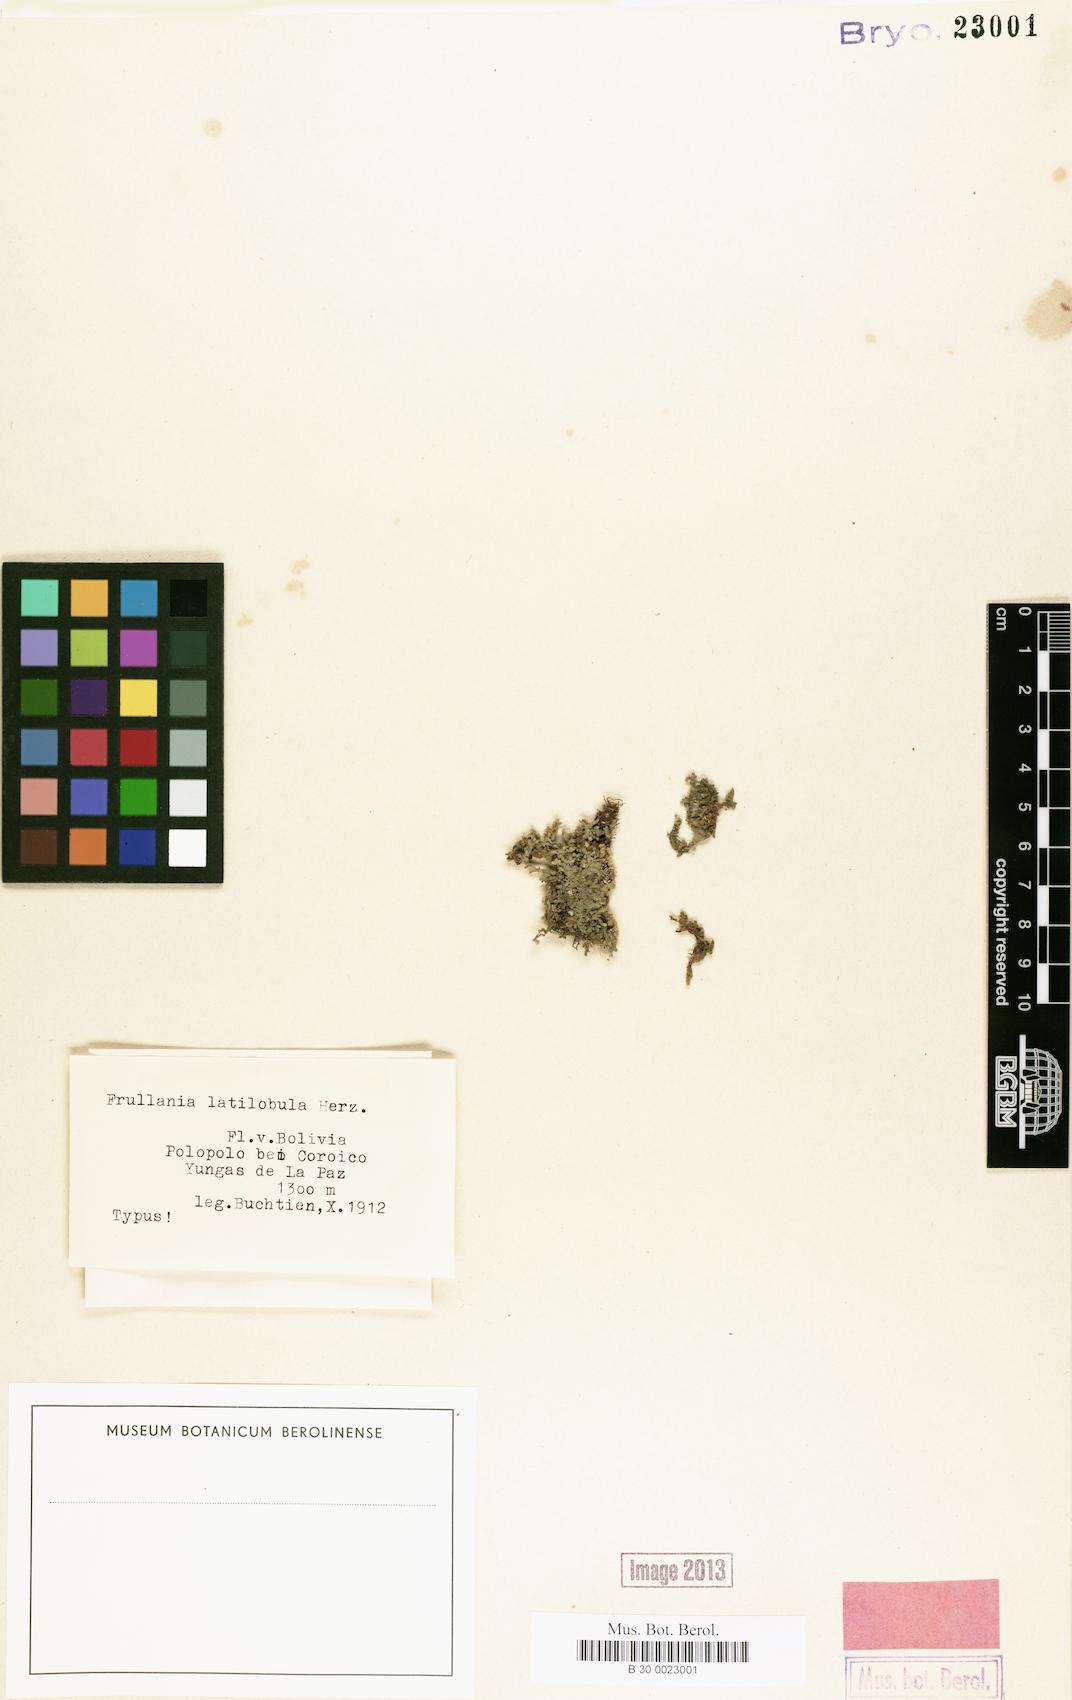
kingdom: Plantae
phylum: Marchantiophyta
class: Jungermanniopsida
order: Porellales
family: Frullaniaceae
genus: Frullania
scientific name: Frullania riojaneirensis
